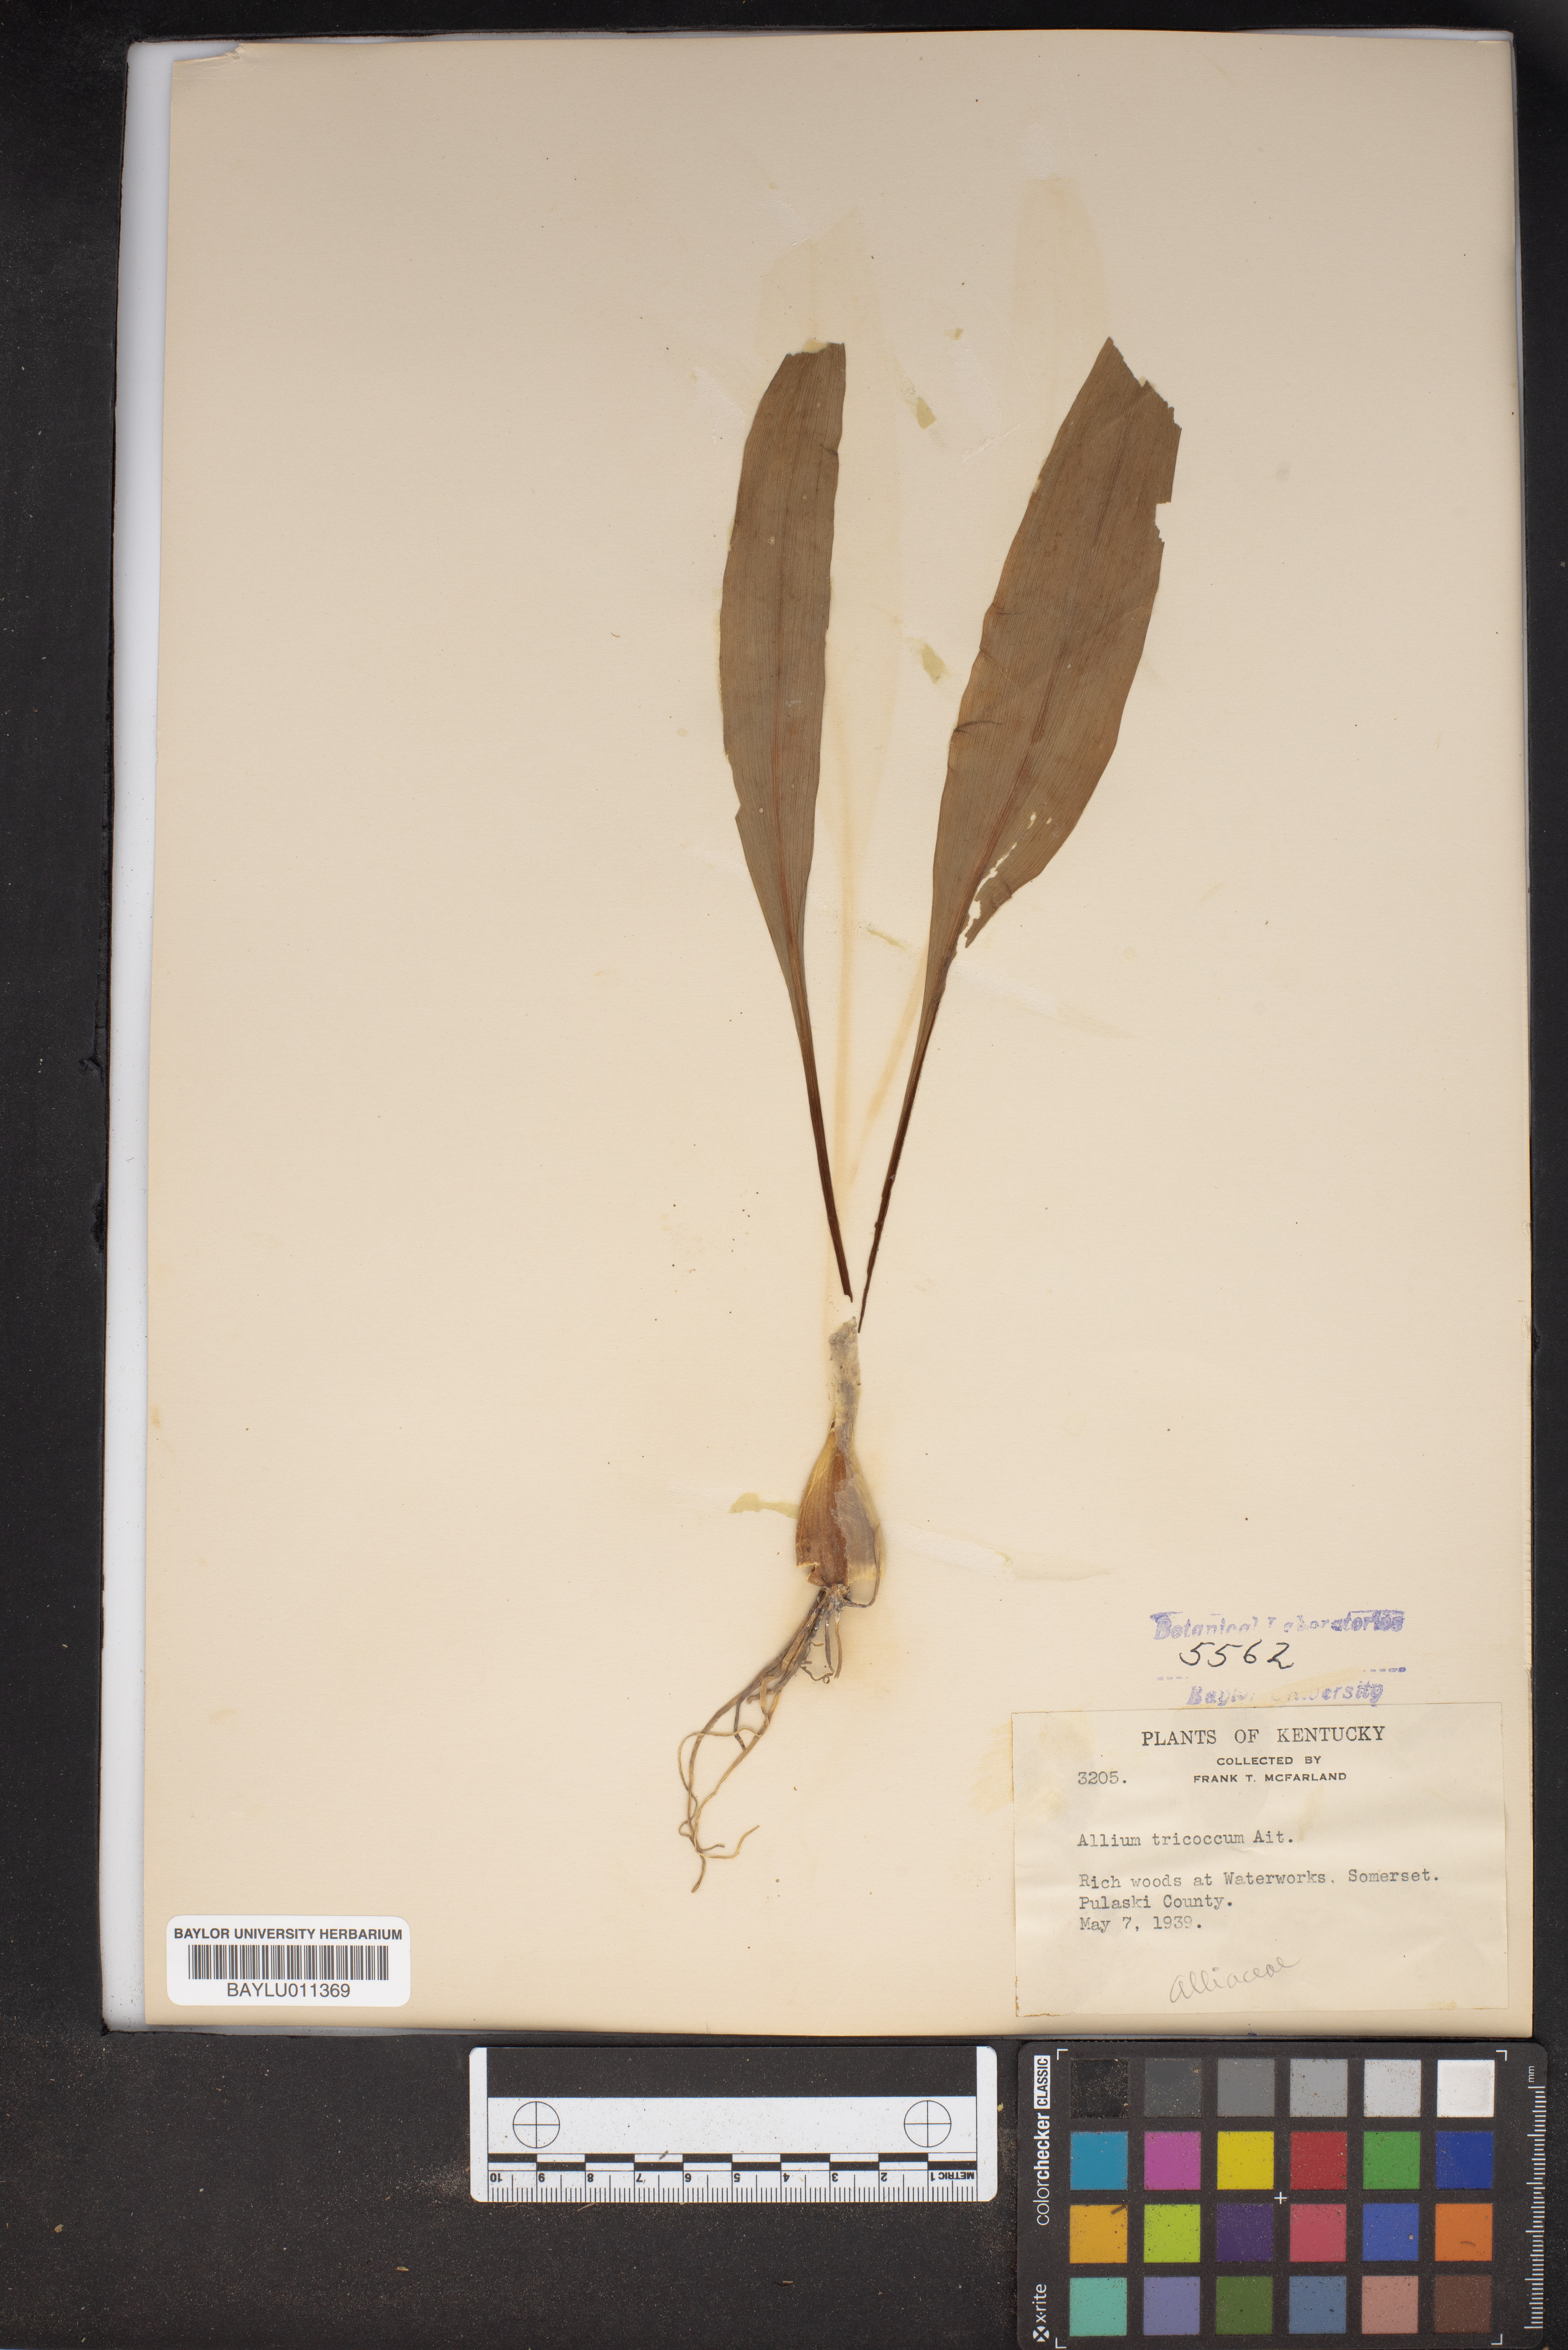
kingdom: Plantae
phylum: Tracheophyta
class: Liliopsida
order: Asparagales
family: Amaryllidaceae
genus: Allium
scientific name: Allium tricoccum
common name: Ramp
